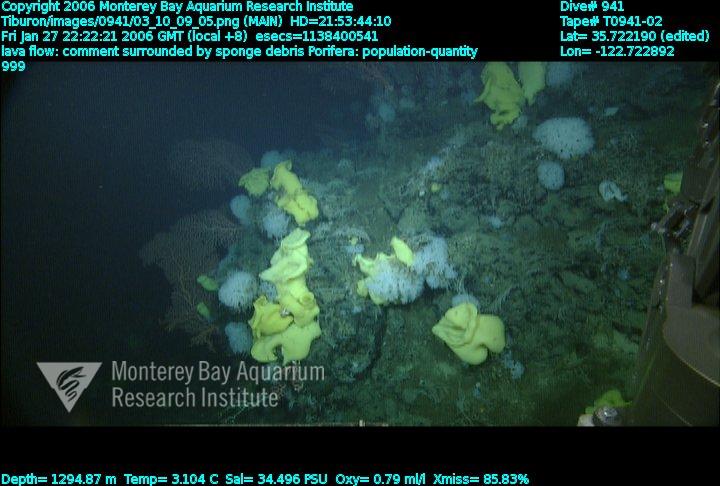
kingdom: Animalia
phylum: Porifera
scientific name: Porifera
